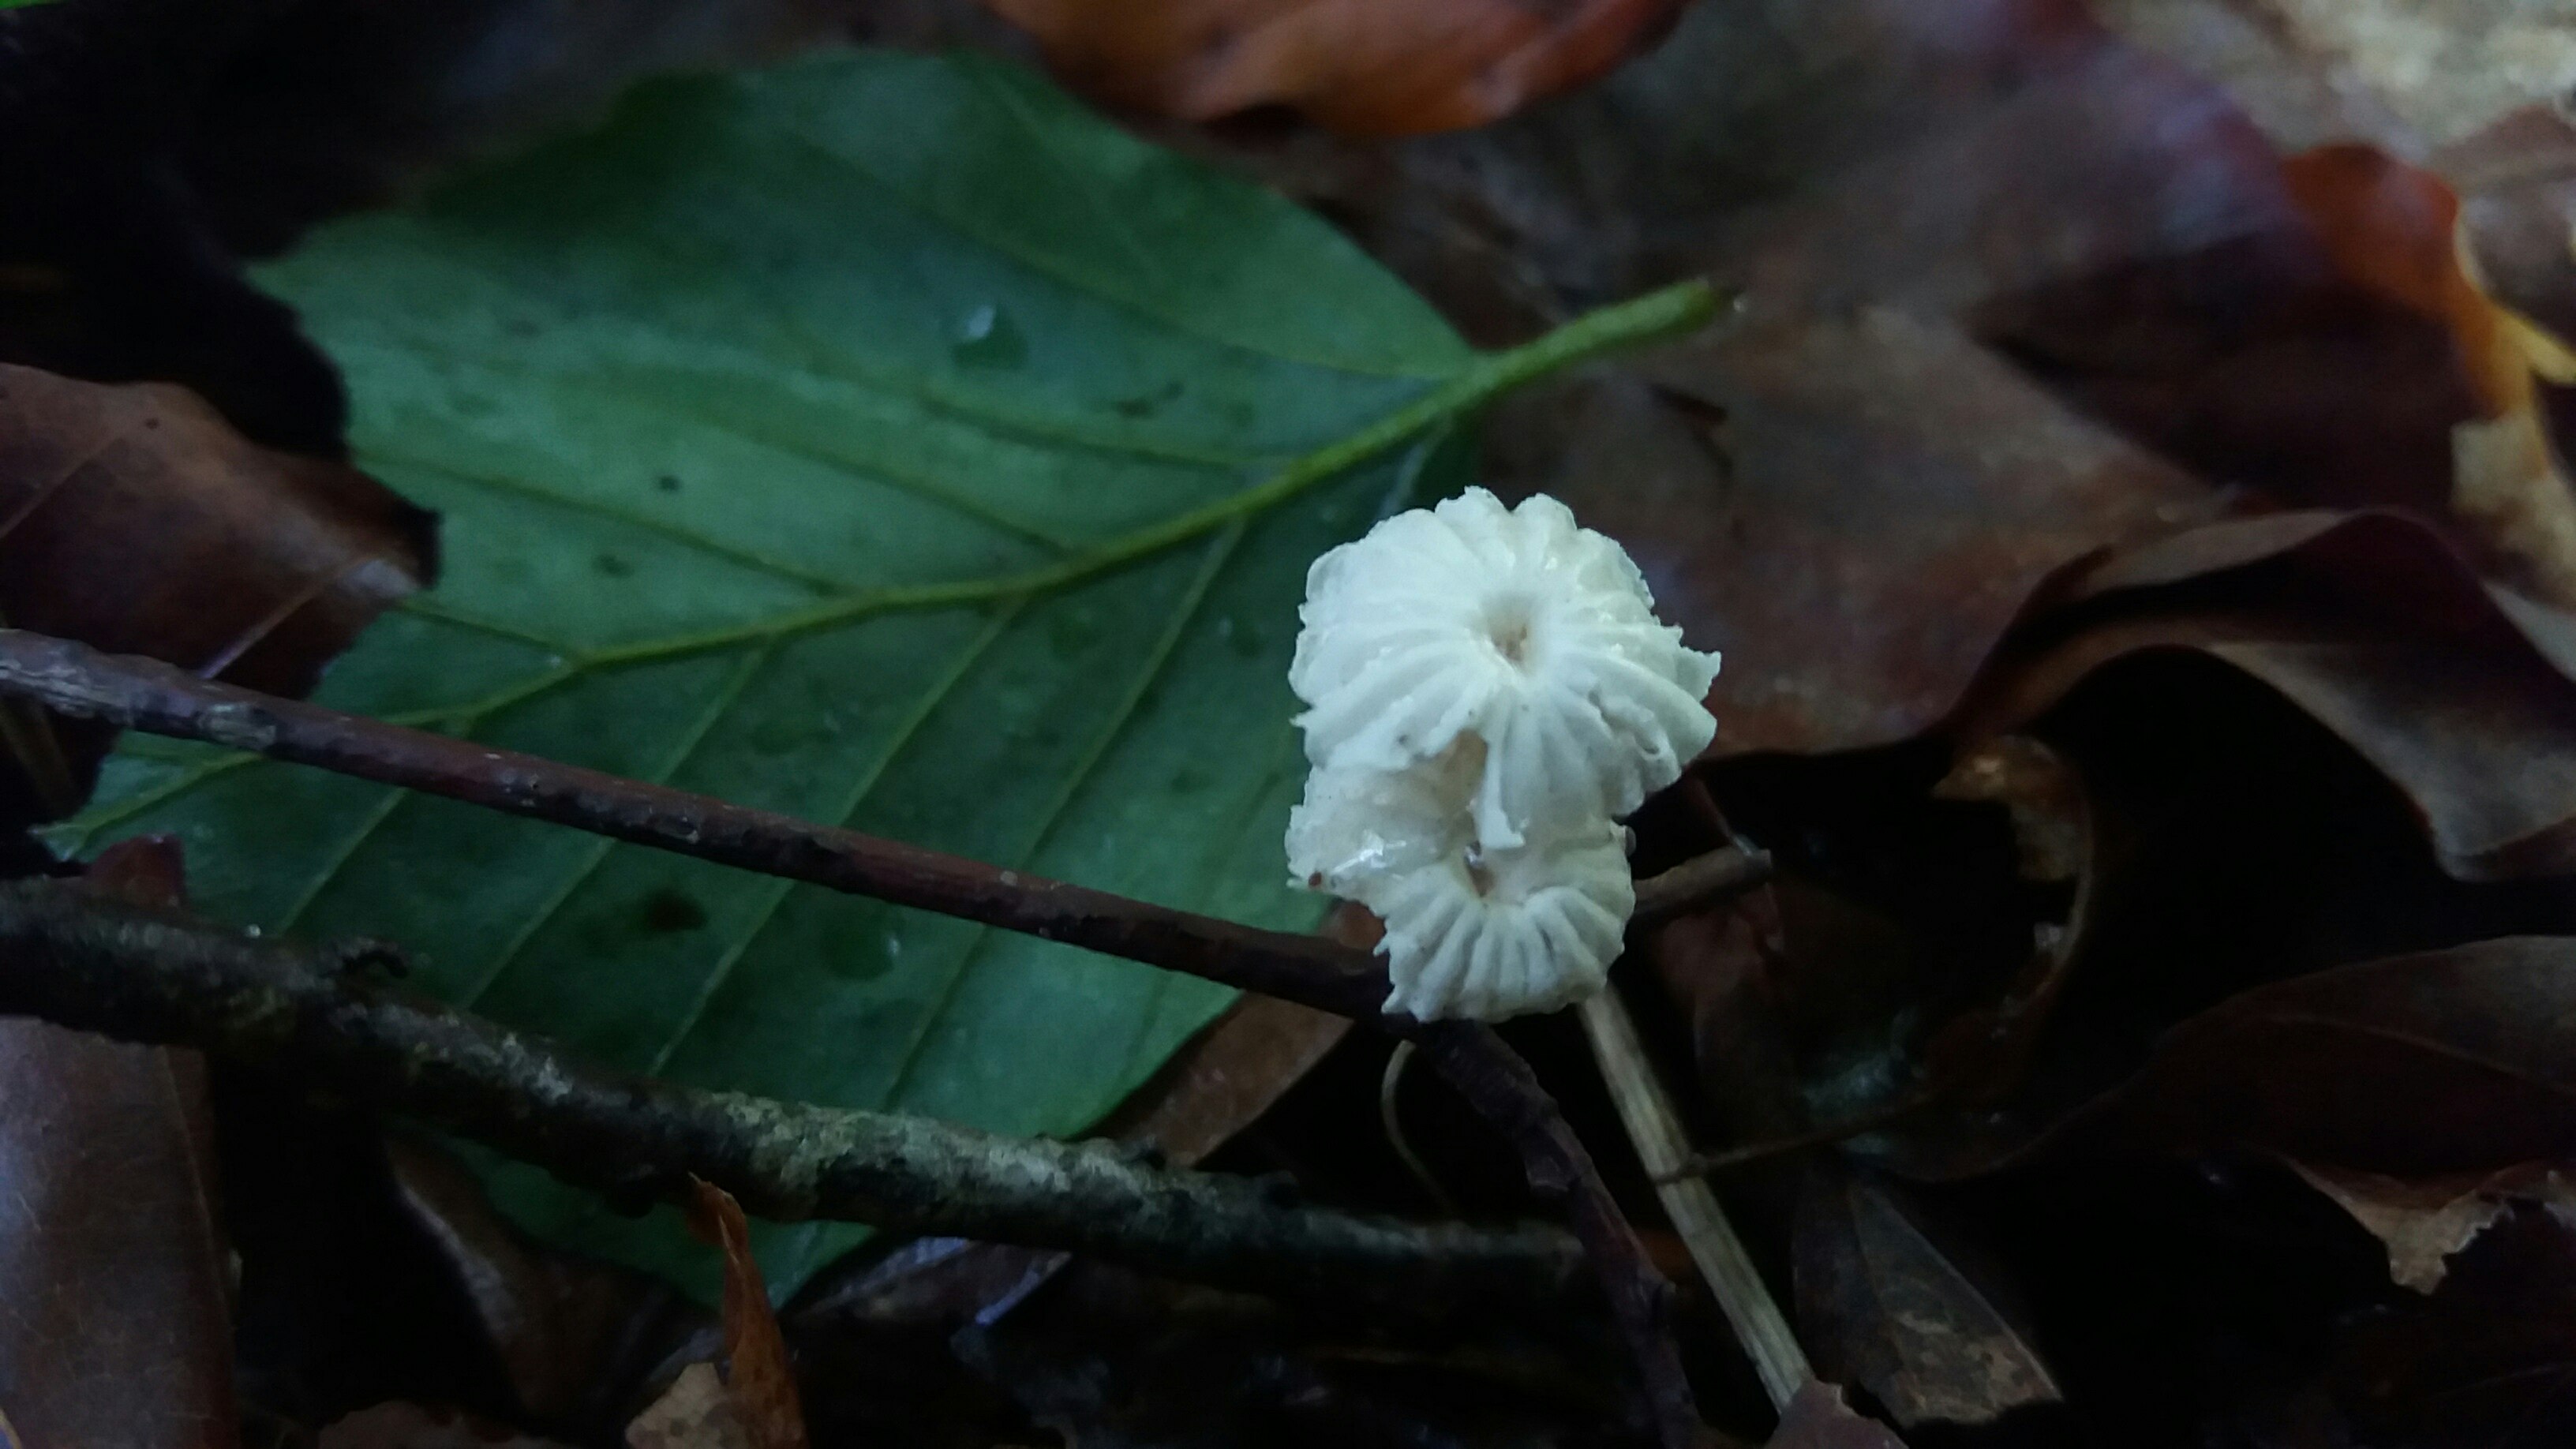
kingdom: Fungi
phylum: Basidiomycota
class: Agaricomycetes
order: Agaricales
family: Marasmiaceae
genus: Marasmius
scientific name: Marasmius rotula
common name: hjul-bruskhat
